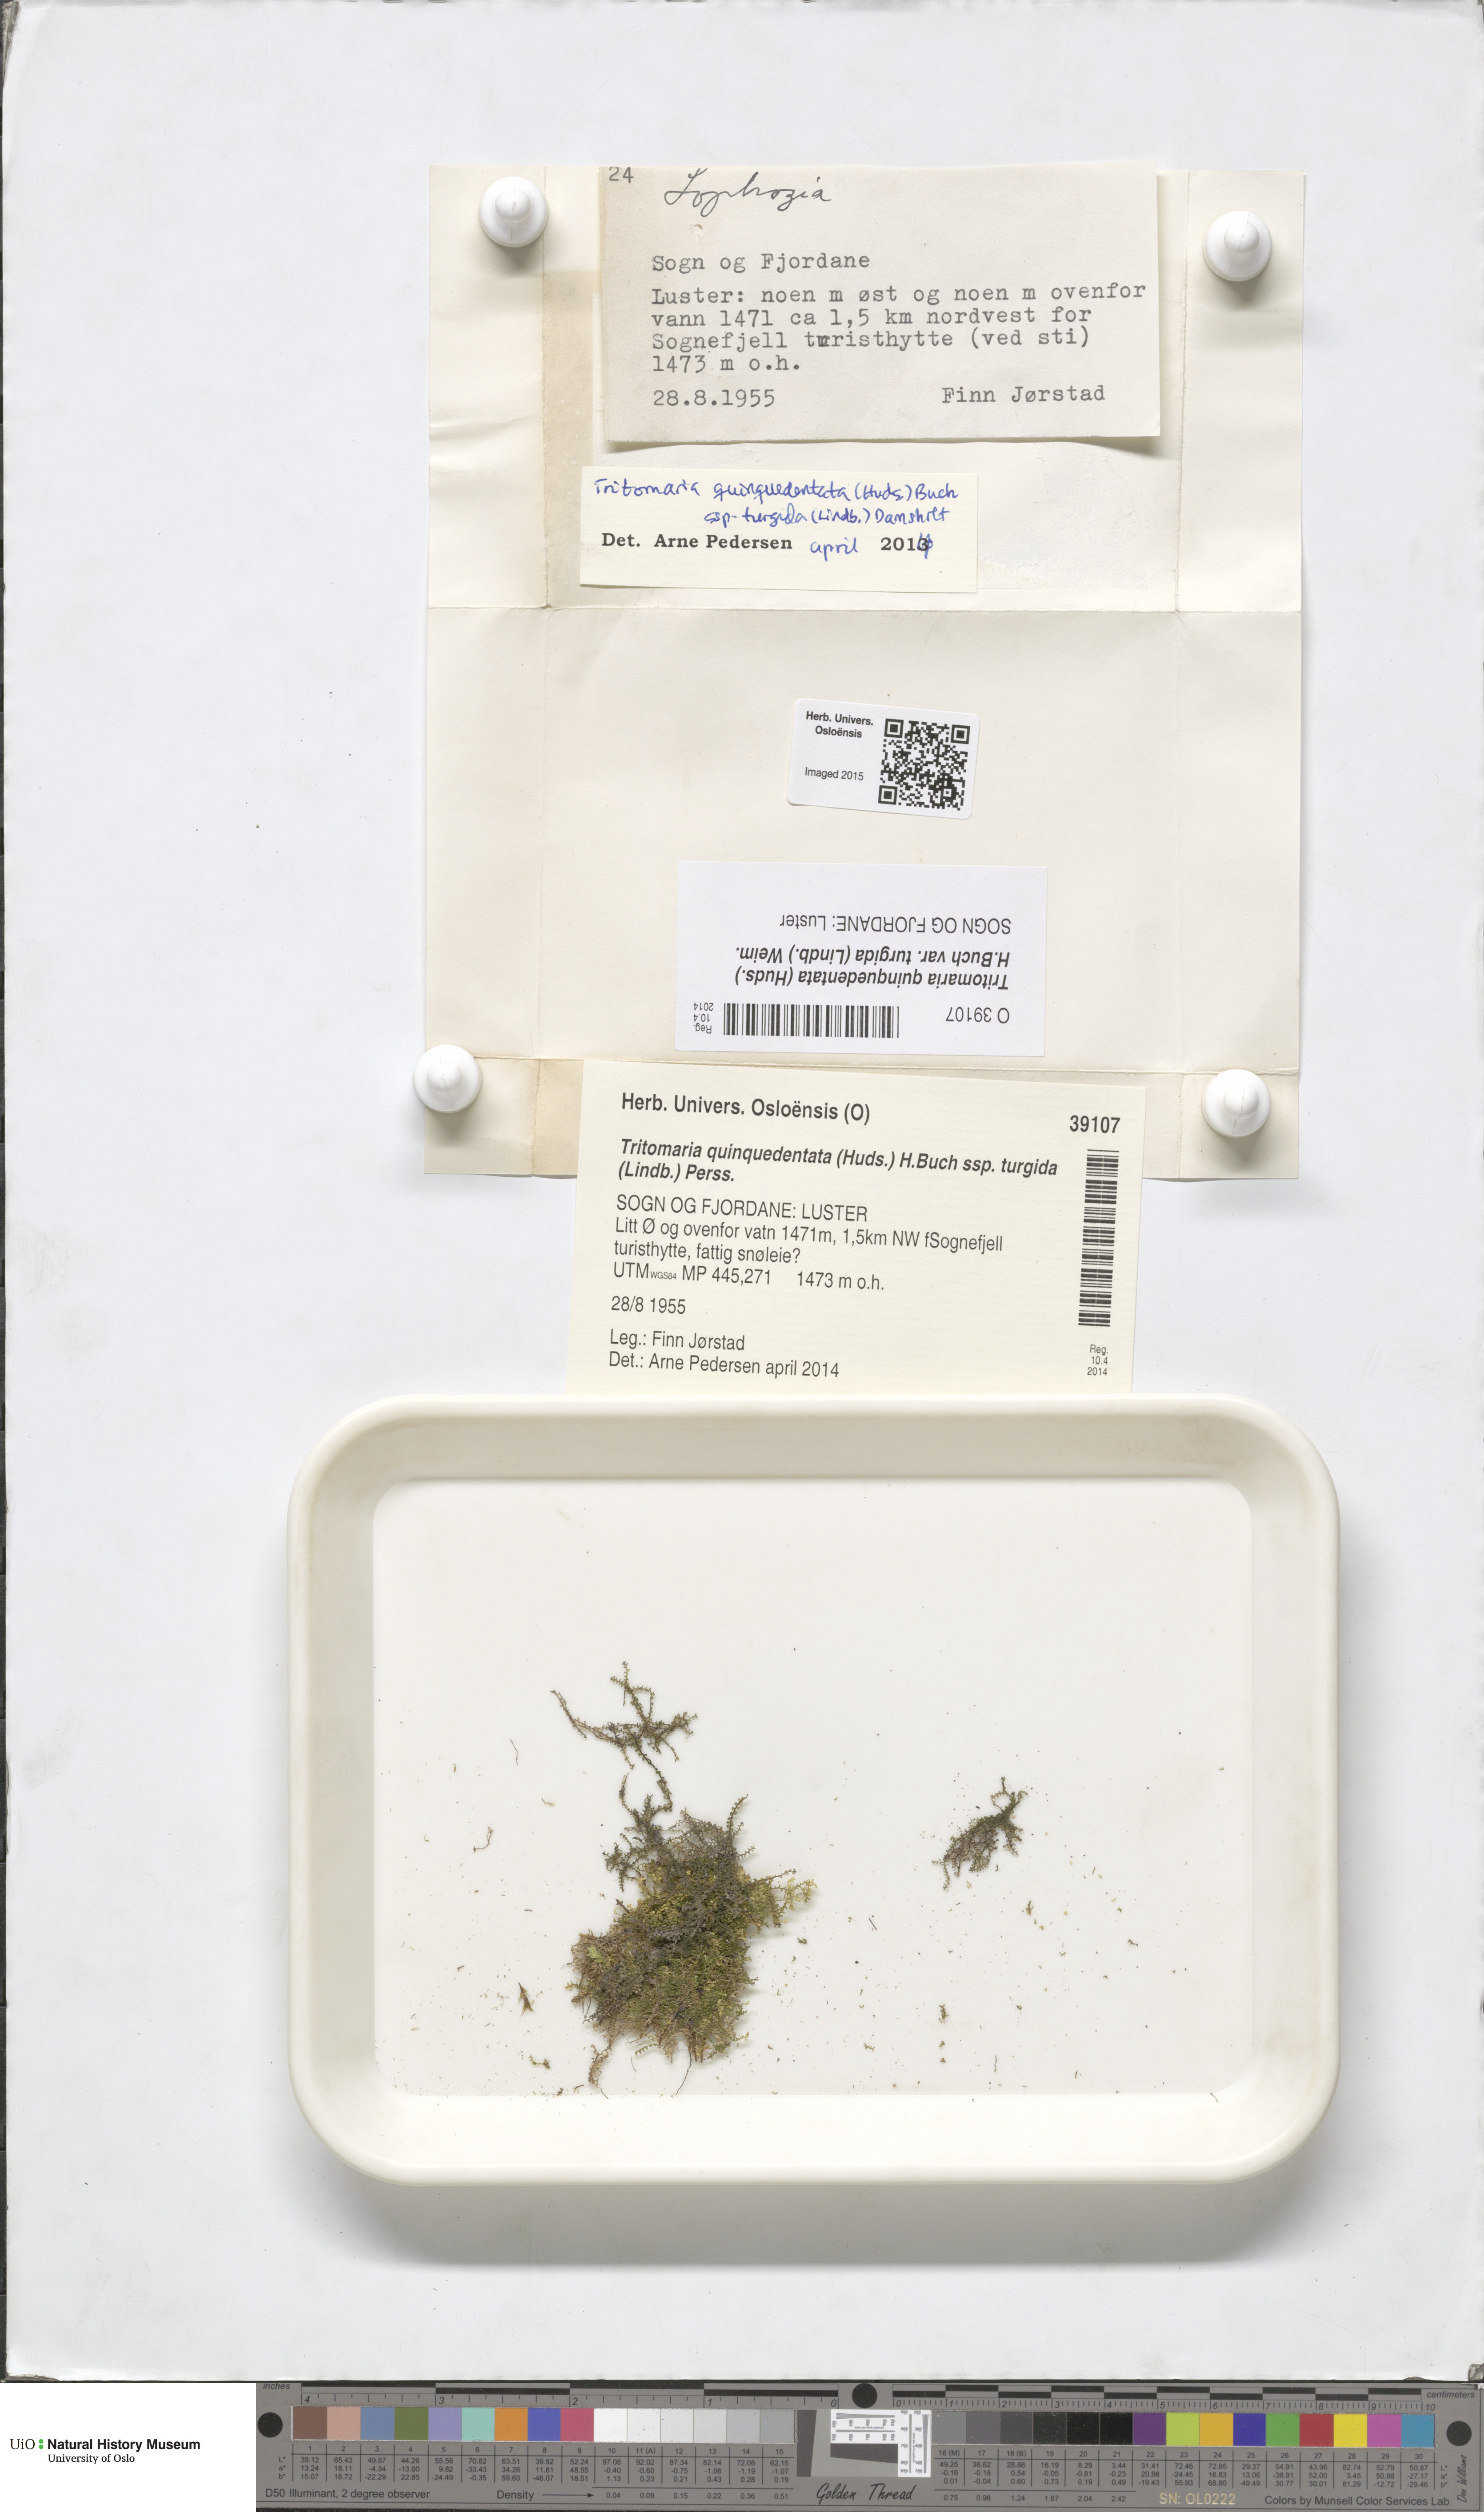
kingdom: Plantae
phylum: Marchantiophyta
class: Jungermanniopsida
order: Jungermanniales
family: Lophoziaceae
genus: Trilophozia
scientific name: Trilophozia quinquedentata
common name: Large notchwort
